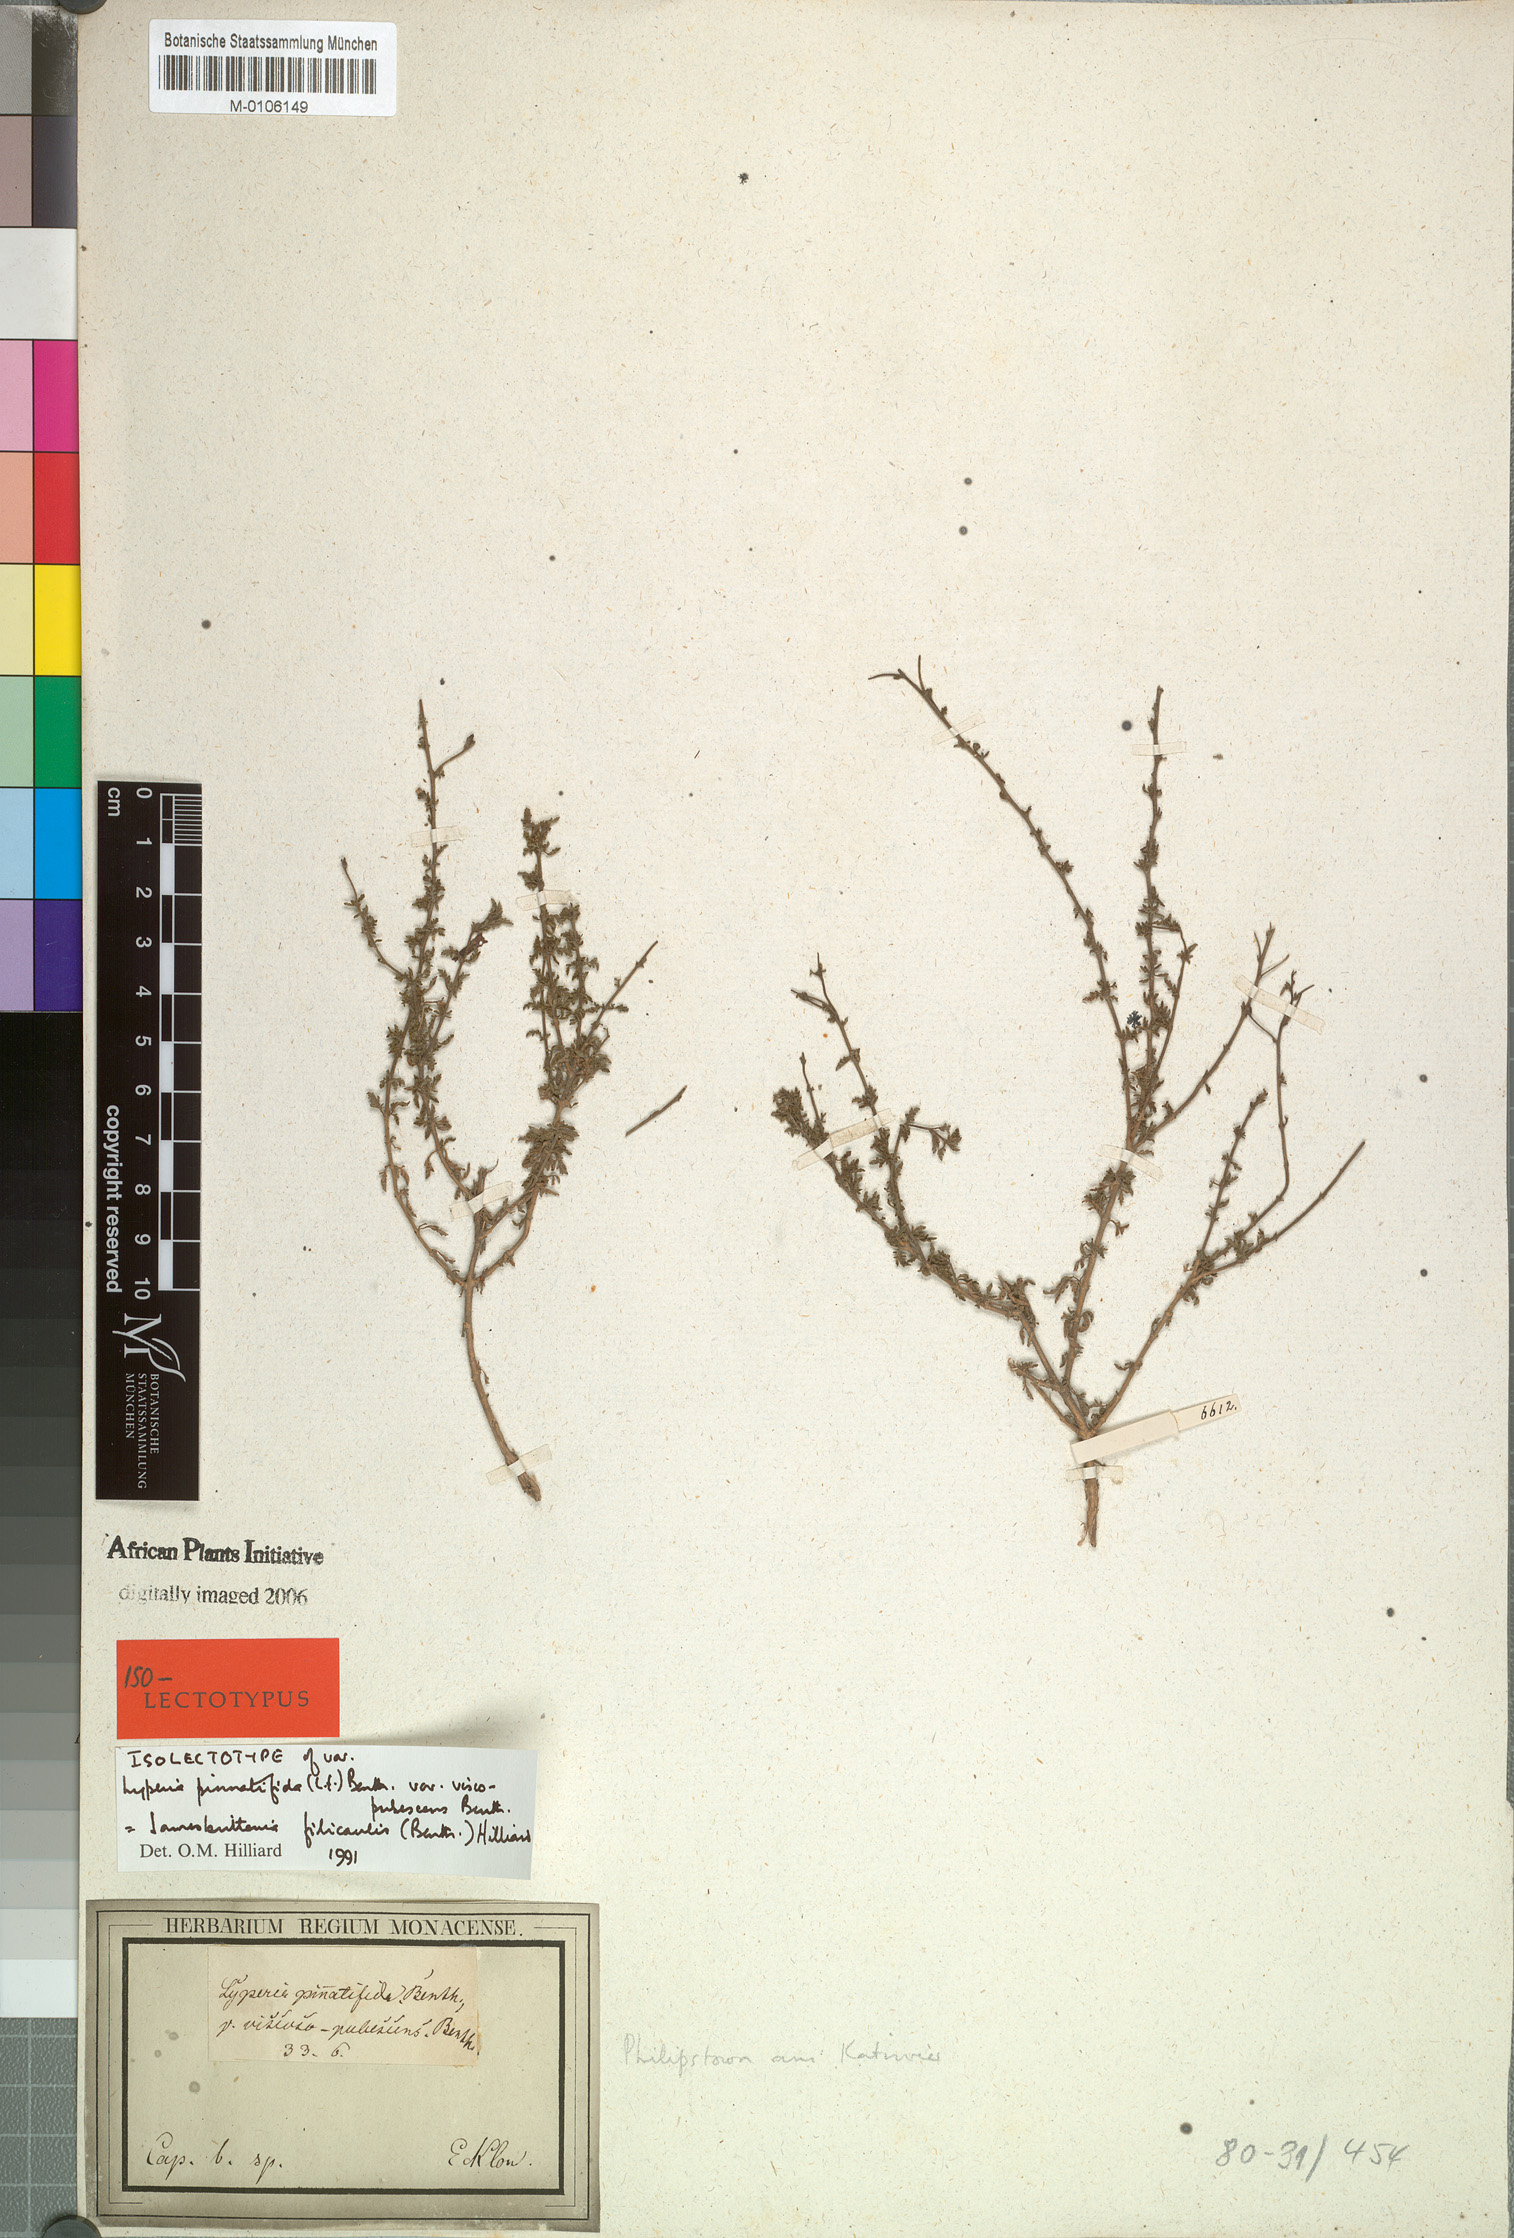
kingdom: Plantae
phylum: Tracheophyta
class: Magnoliopsida
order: Lamiales
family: Scrophulariaceae
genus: Jamesbrittenia
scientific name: Jamesbrittenia filicaulis
